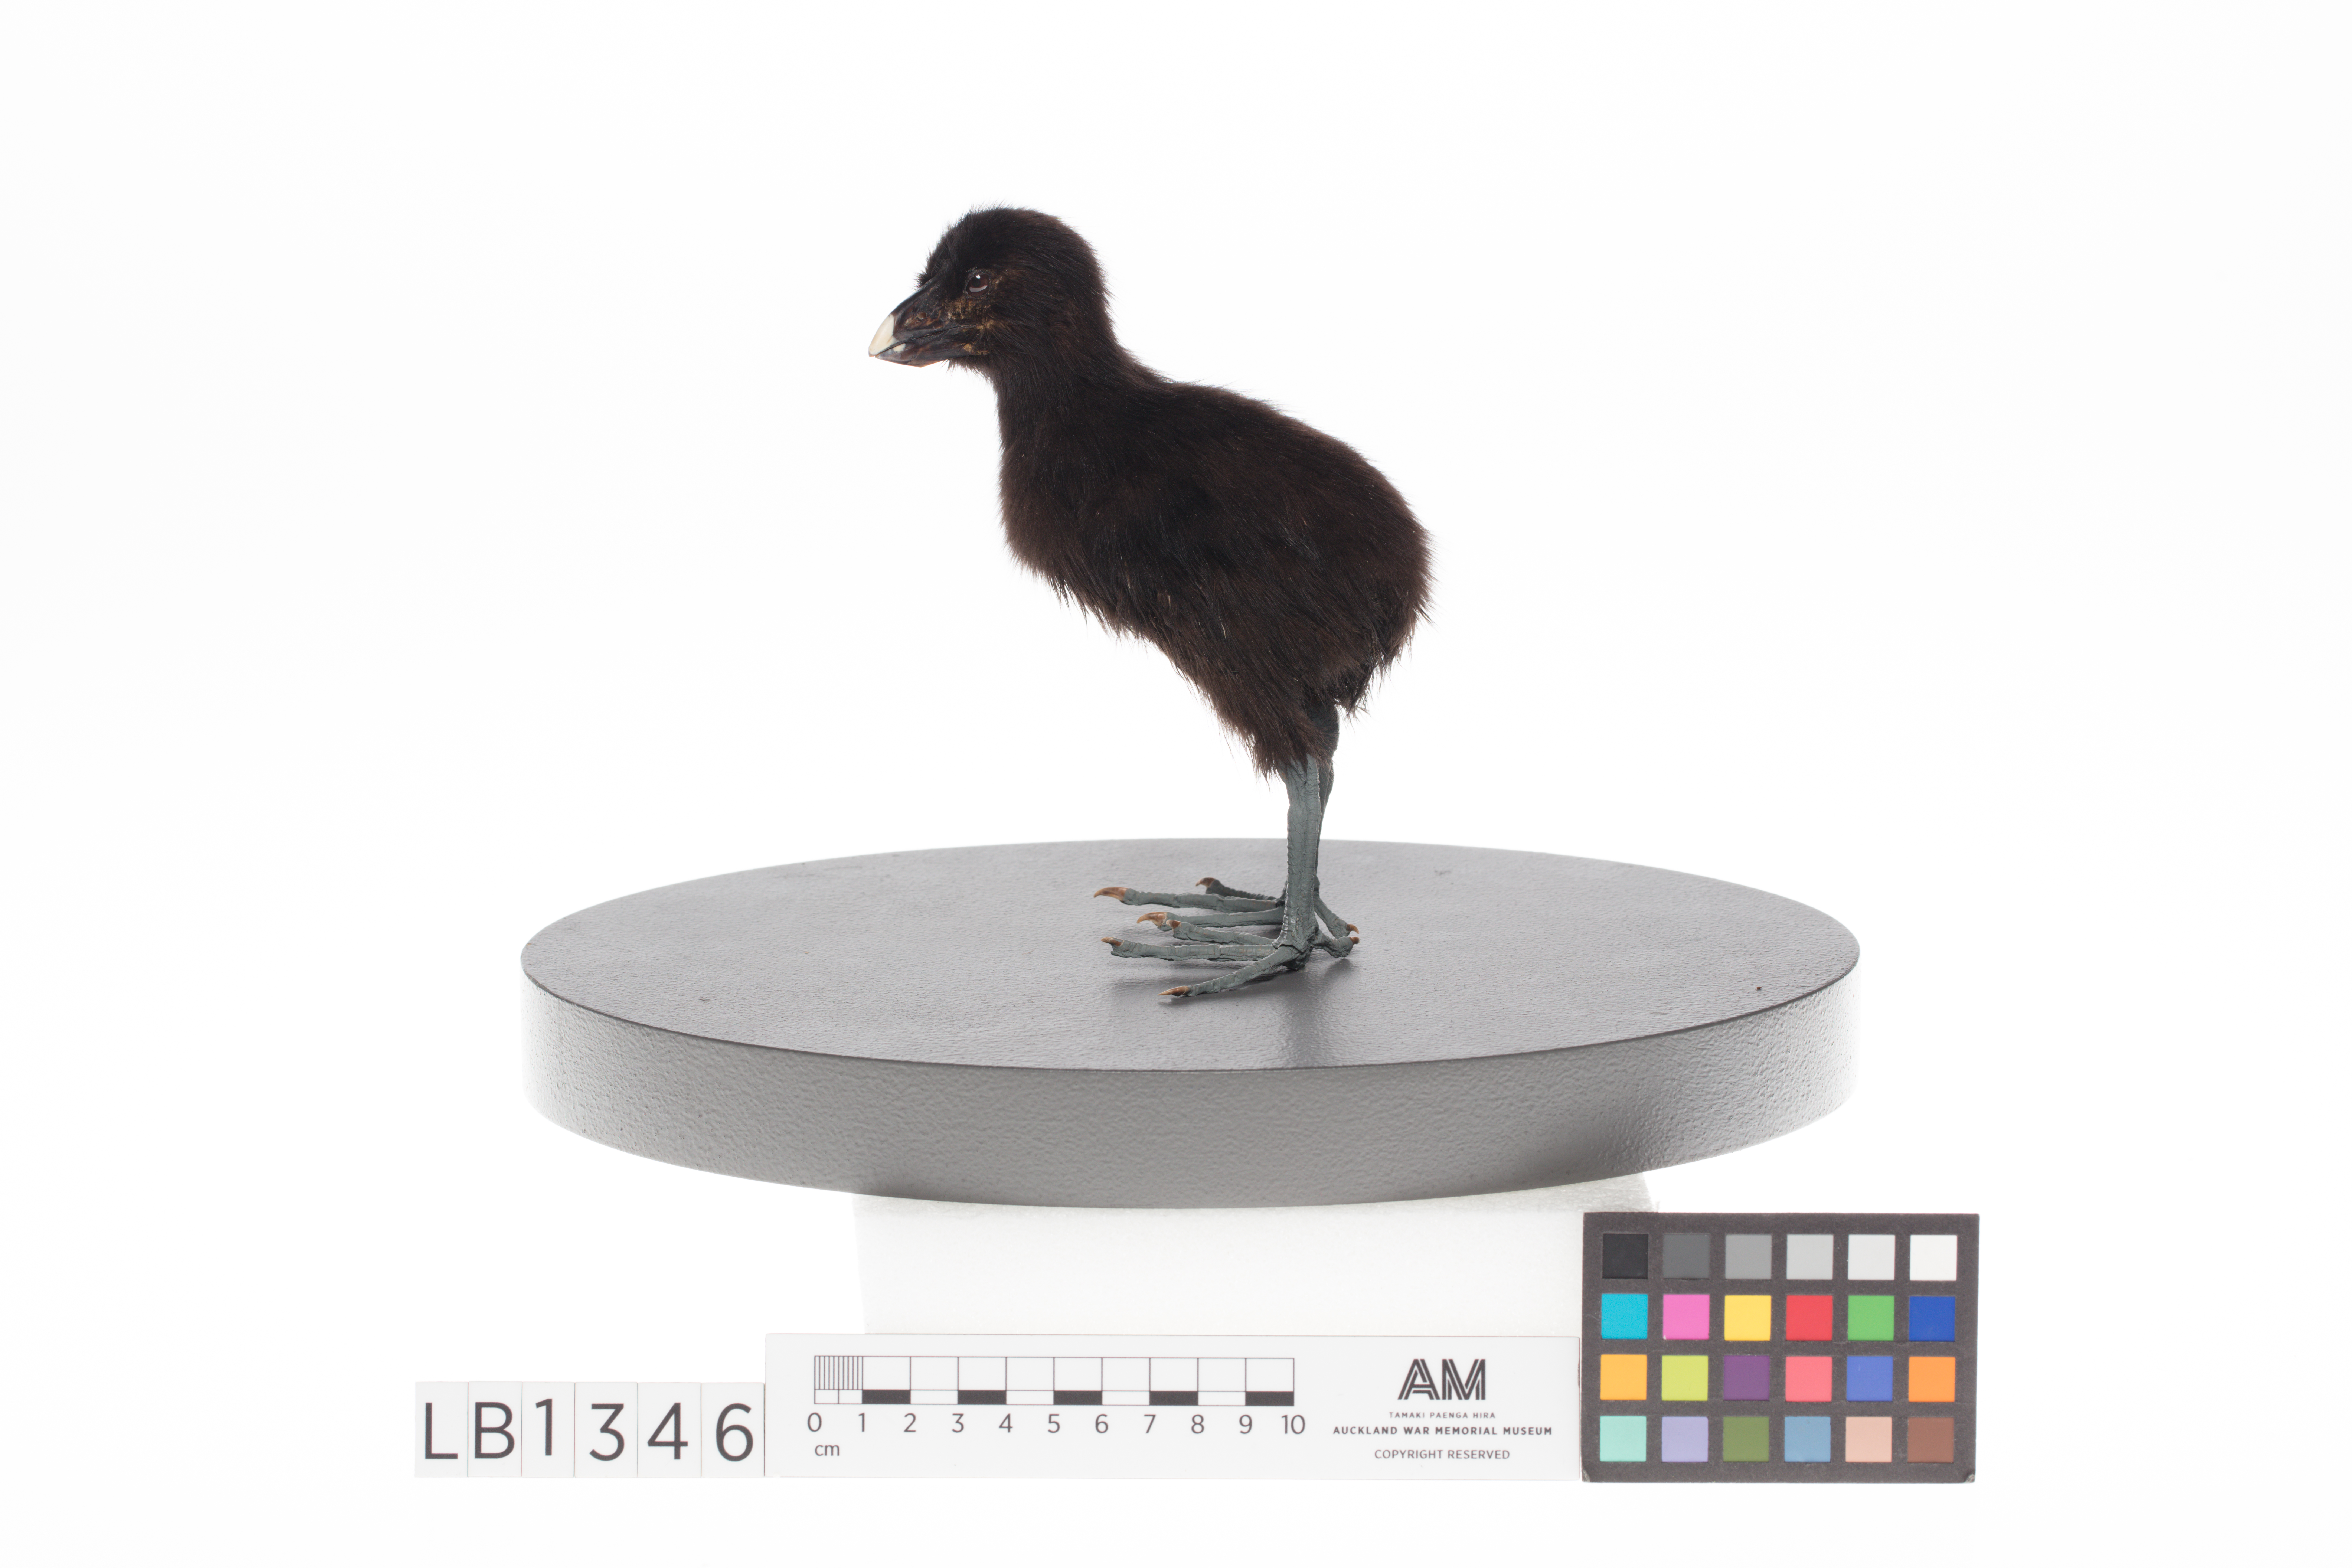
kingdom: Animalia
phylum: Chordata
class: Aves
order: Gruiformes
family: Rallidae
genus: Porphyrio
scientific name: Porphyrio hochstetteri
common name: South island takahe
